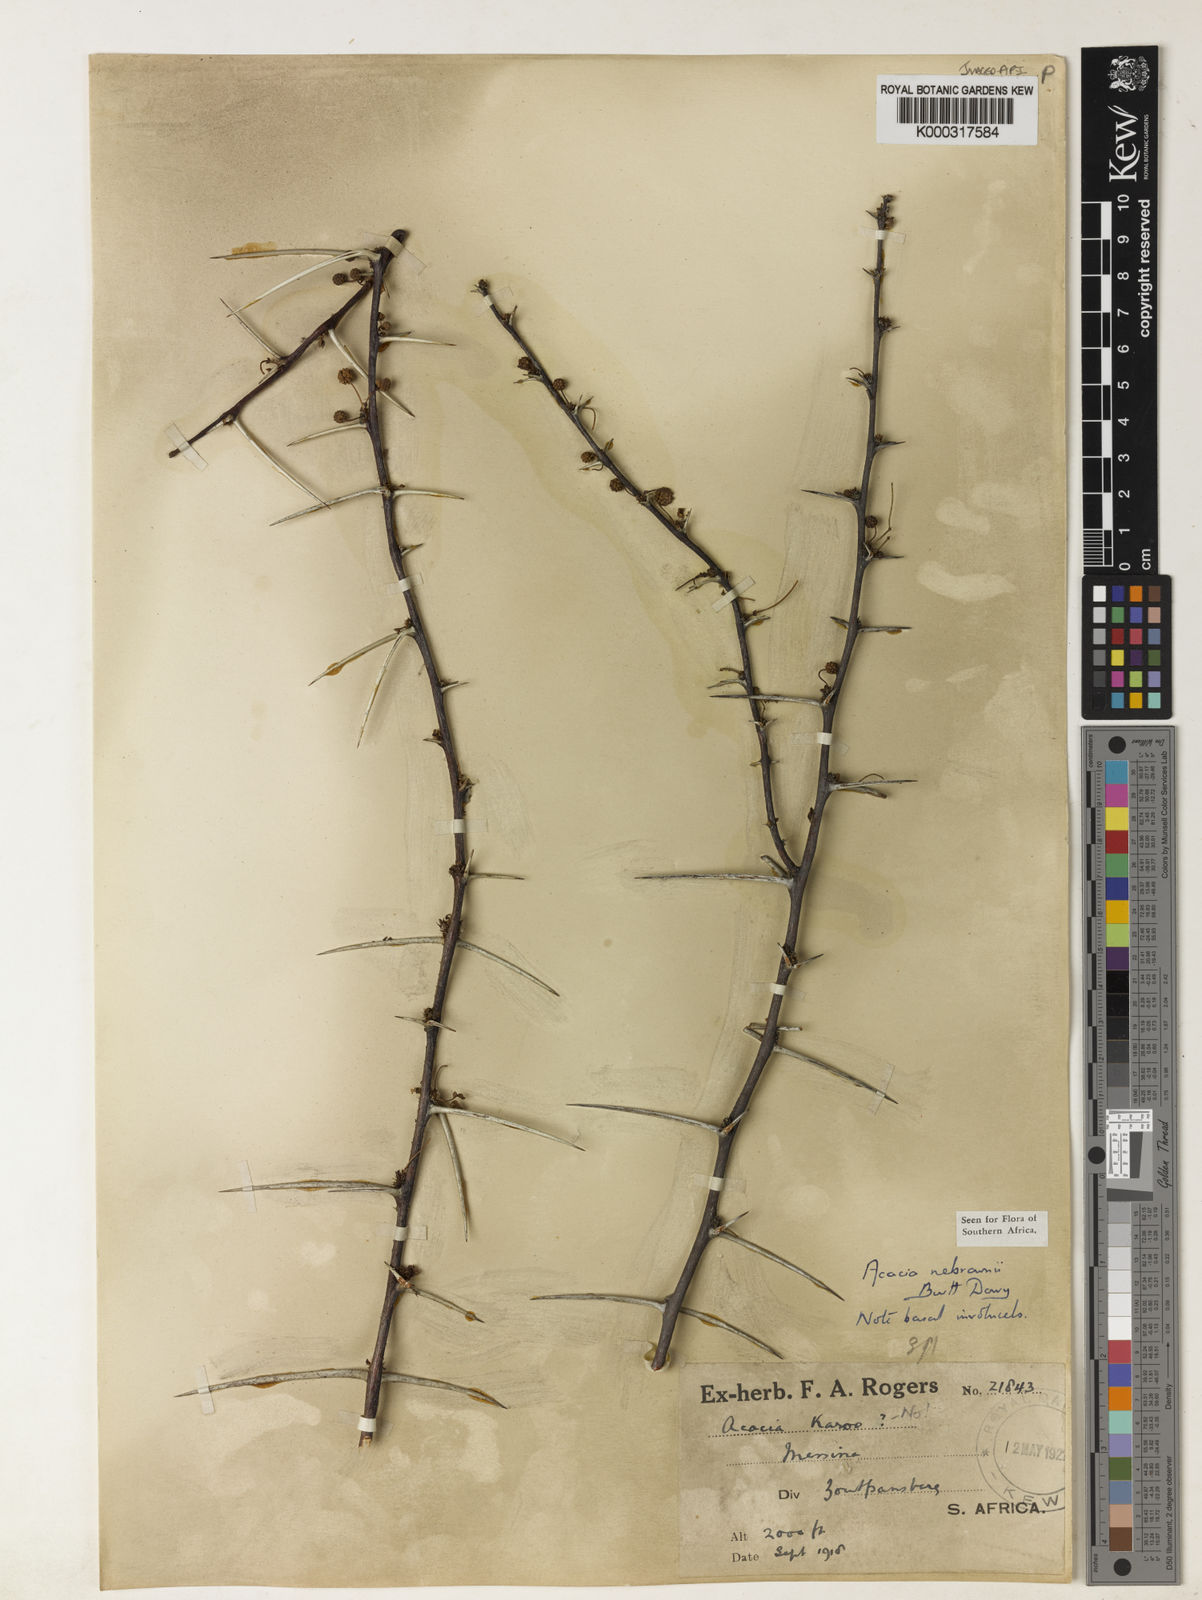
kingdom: Plantae
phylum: Tracheophyta
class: Magnoliopsida
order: Fabales
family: Fabaceae
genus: Vachellia
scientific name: Vachellia nebrownii
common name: Water acacia
